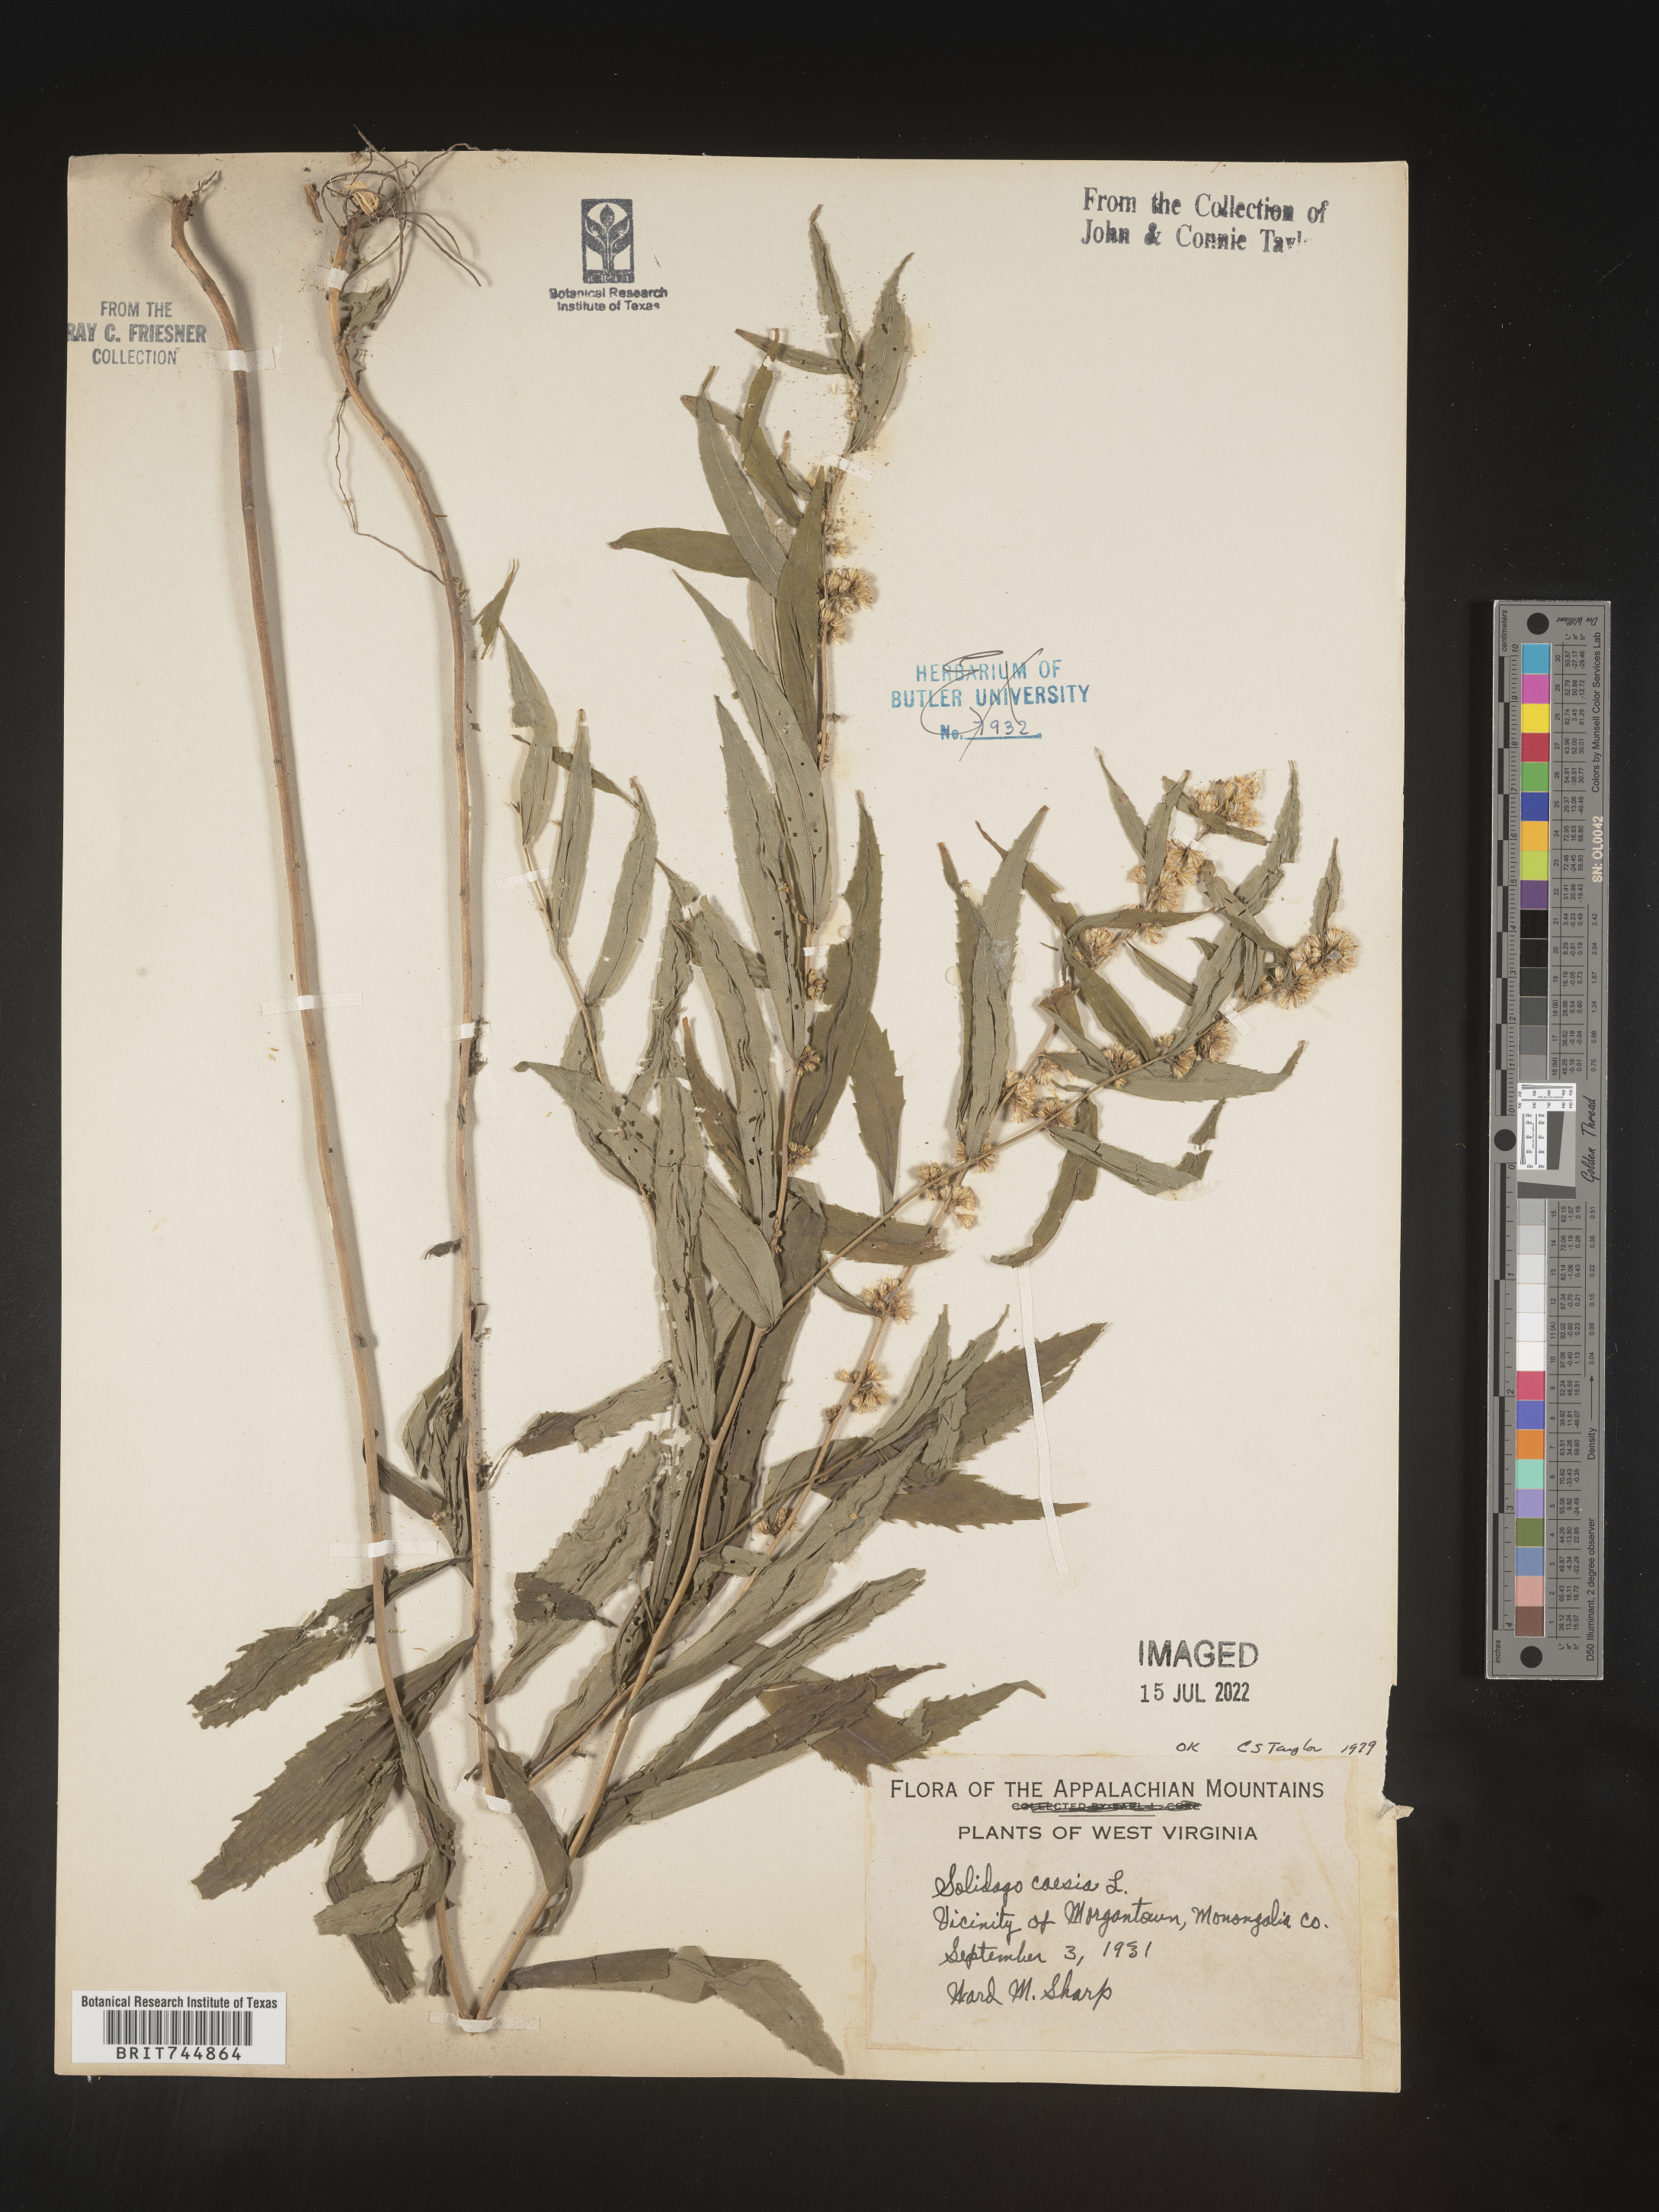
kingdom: Plantae
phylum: Tracheophyta
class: Magnoliopsida
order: Asterales
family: Asteraceae
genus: Solidago
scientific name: Solidago caesia
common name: Woodland goldenrod
